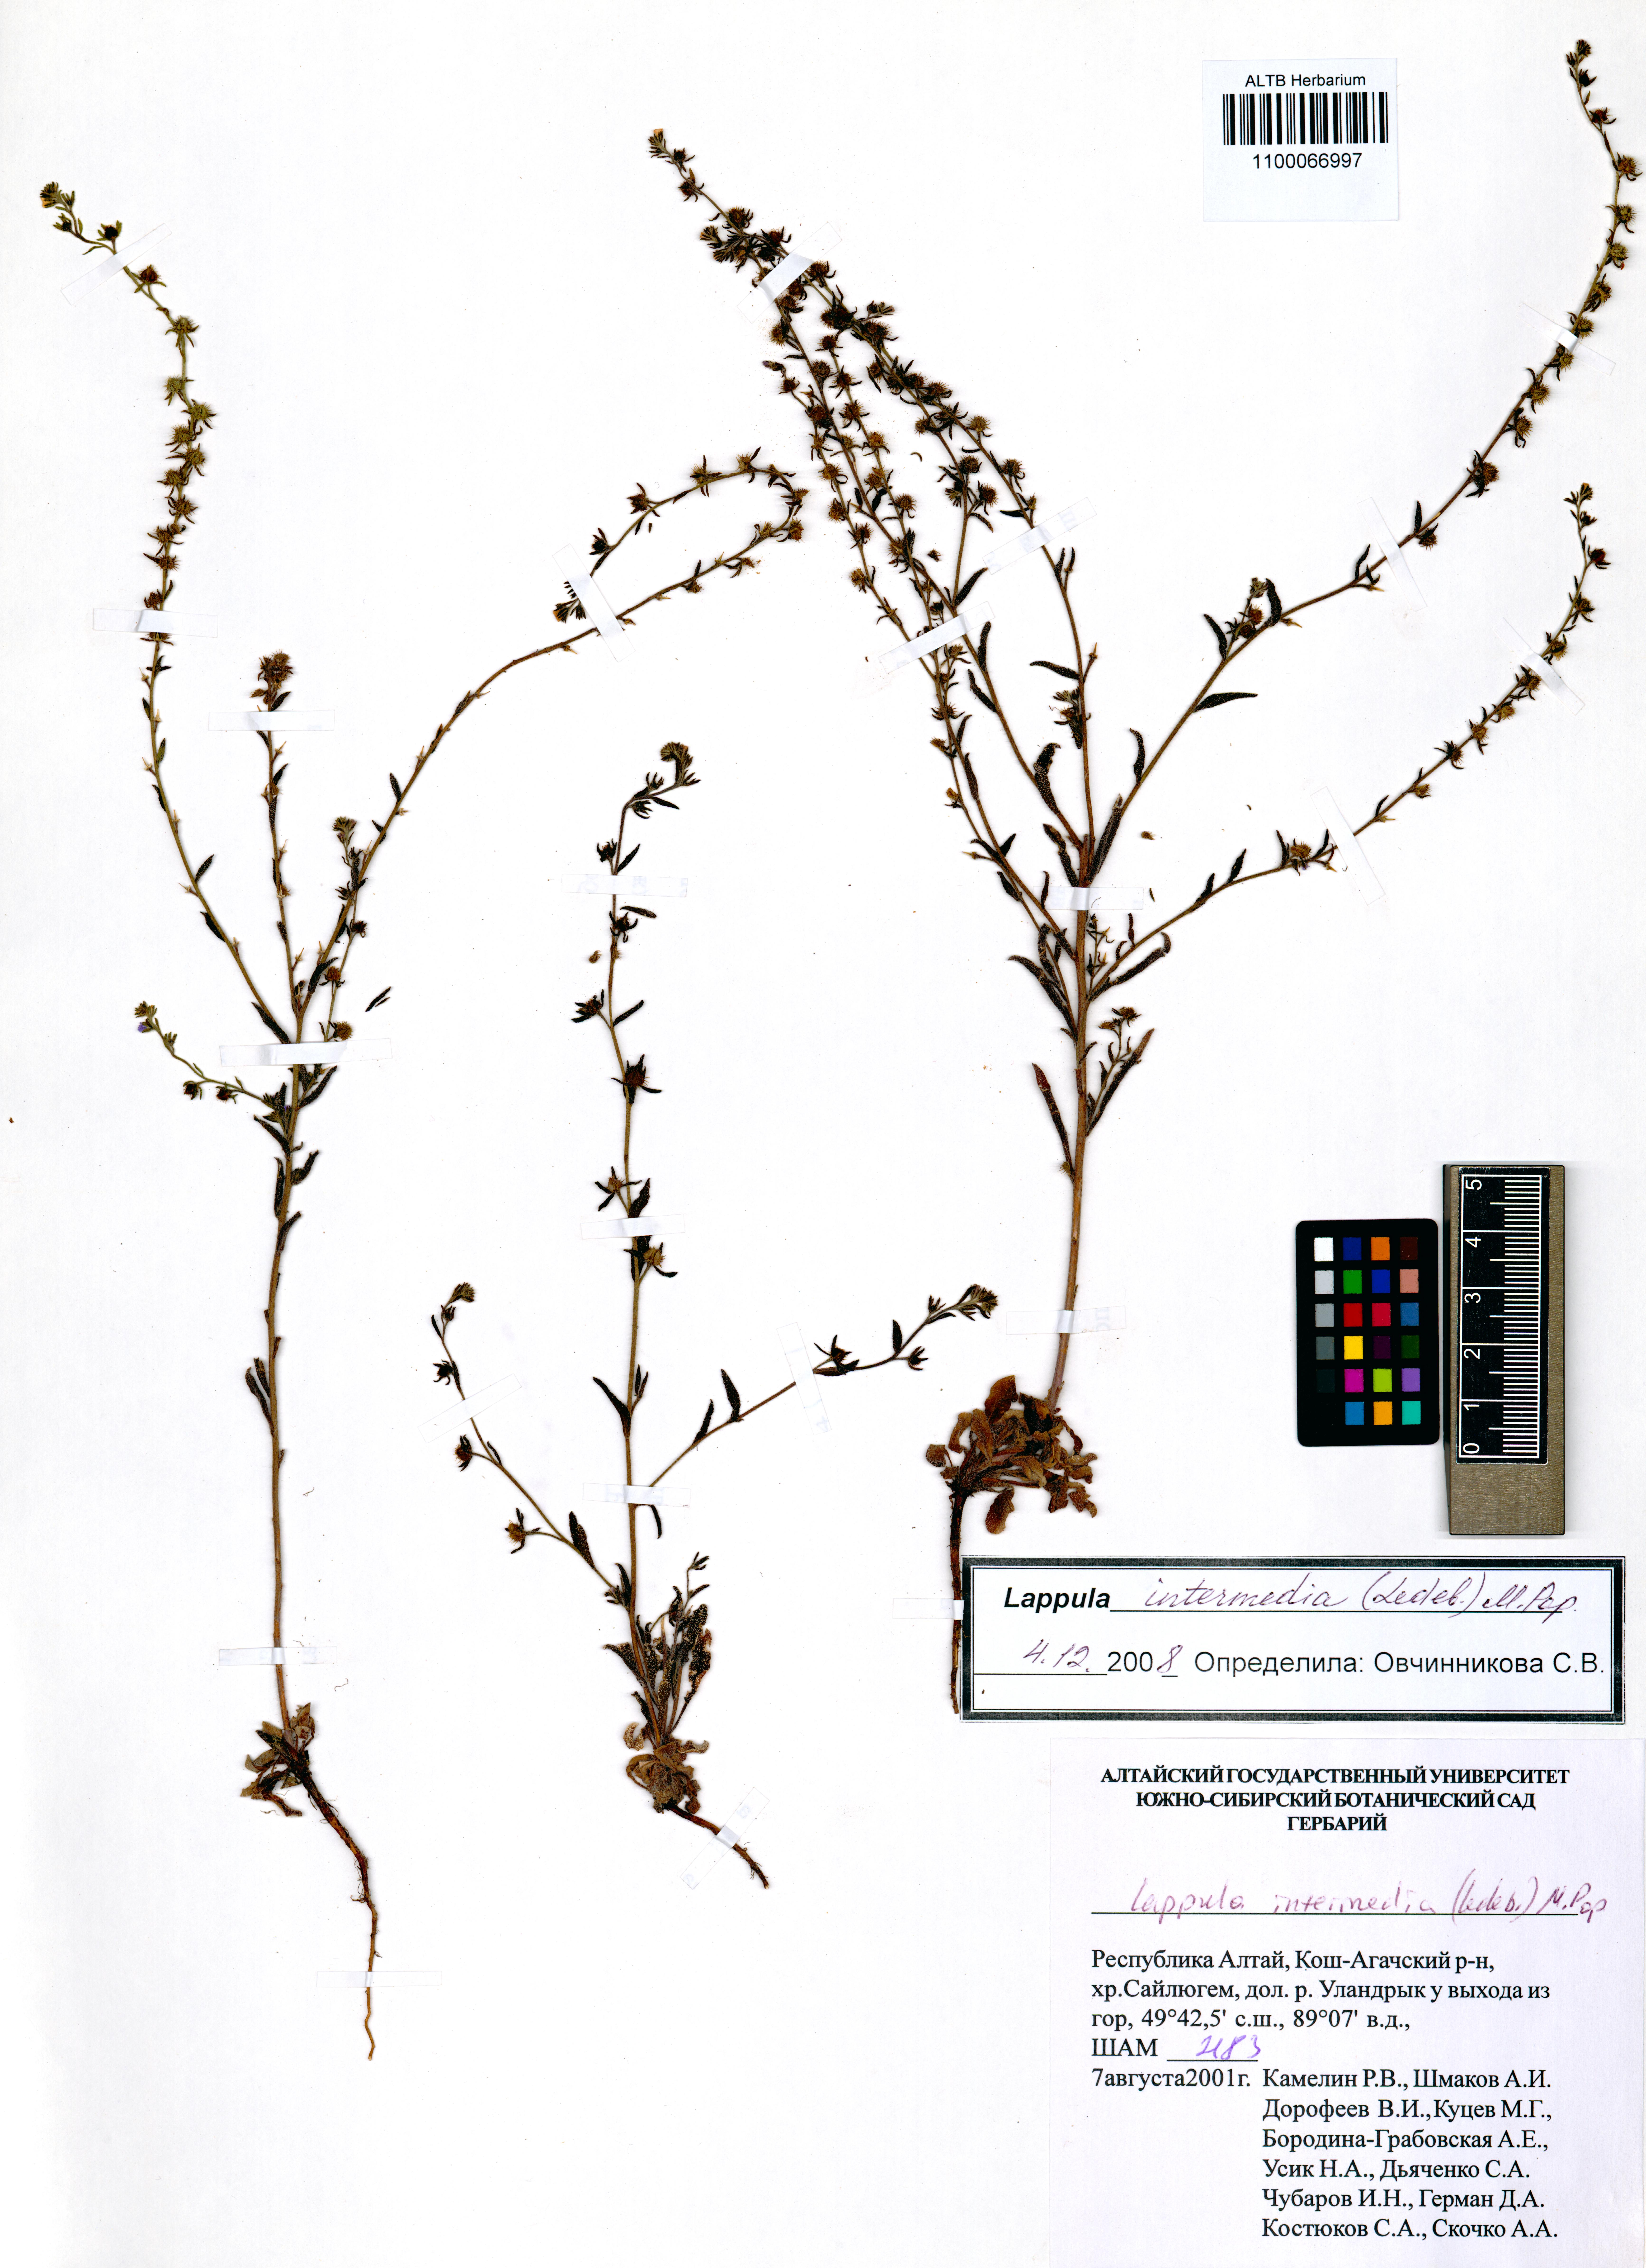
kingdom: Plantae
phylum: Tracheophyta
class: Magnoliopsida
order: Boraginales
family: Boraginaceae
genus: Lappula
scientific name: Lappula intermedia
